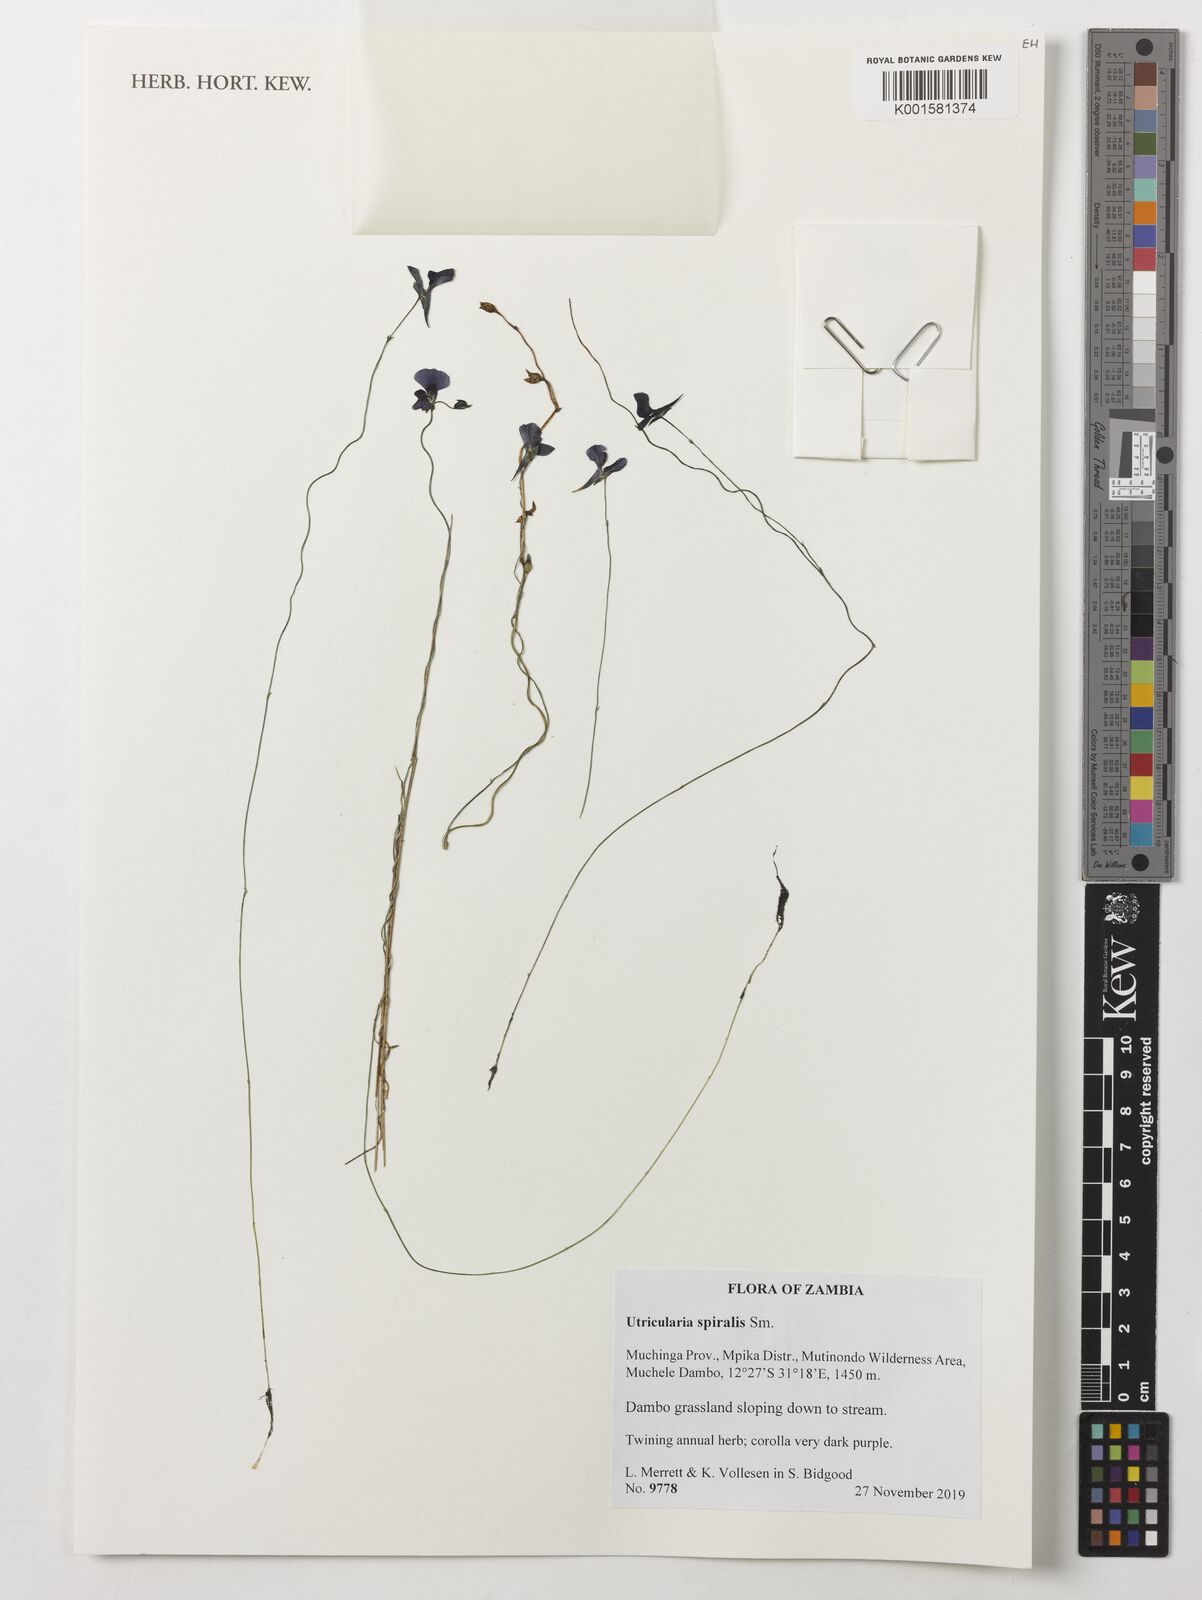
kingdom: Plantae
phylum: Tracheophyta
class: Magnoliopsida
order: Lamiales
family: Lentibulariaceae
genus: Utricularia
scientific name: Utricularia spiralis
